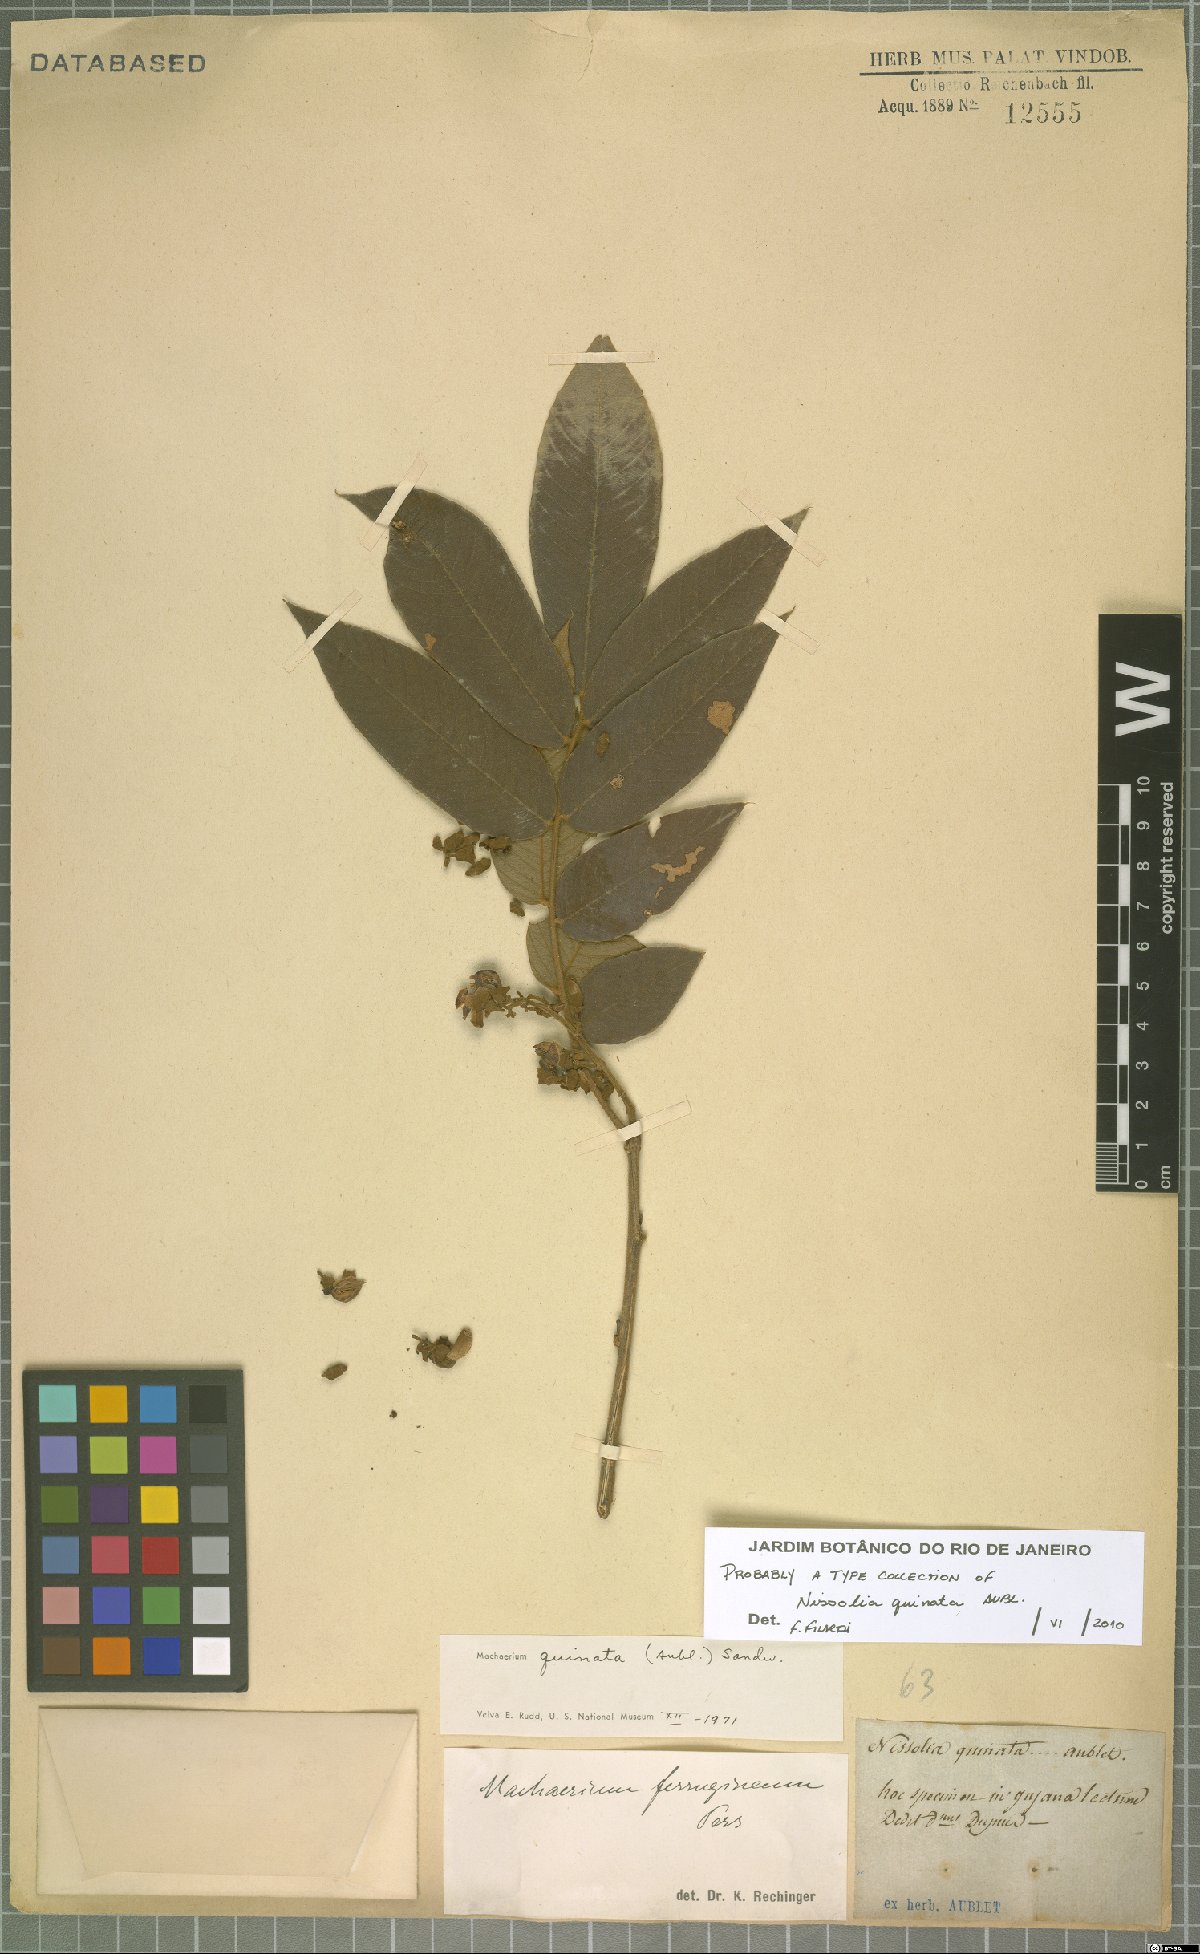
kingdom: Plantae
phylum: Tracheophyta
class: Magnoliopsida
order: Fabales
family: Fabaceae
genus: Machaerium
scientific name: Machaerium quinata
